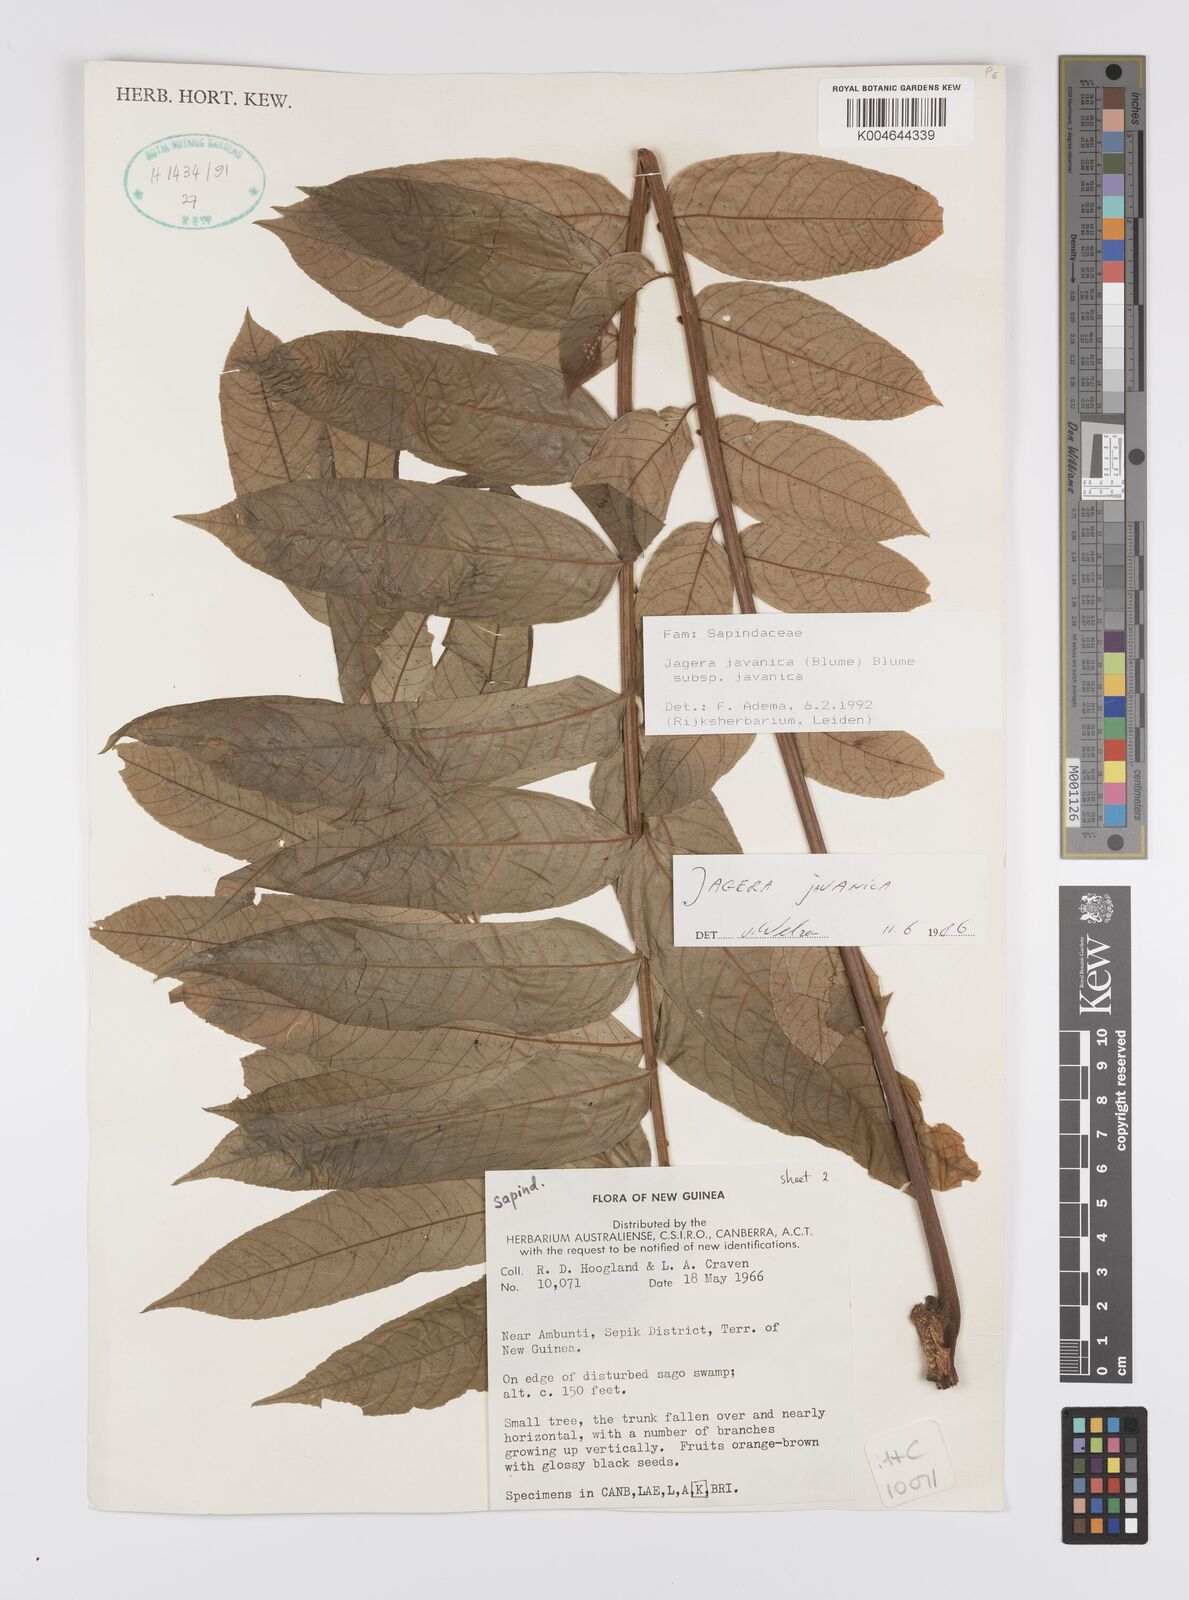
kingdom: Plantae
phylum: Tracheophyta
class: Magnoliopsida
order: Sapindales
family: Sapindaceae
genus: Jagera
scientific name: Jagera javanica
